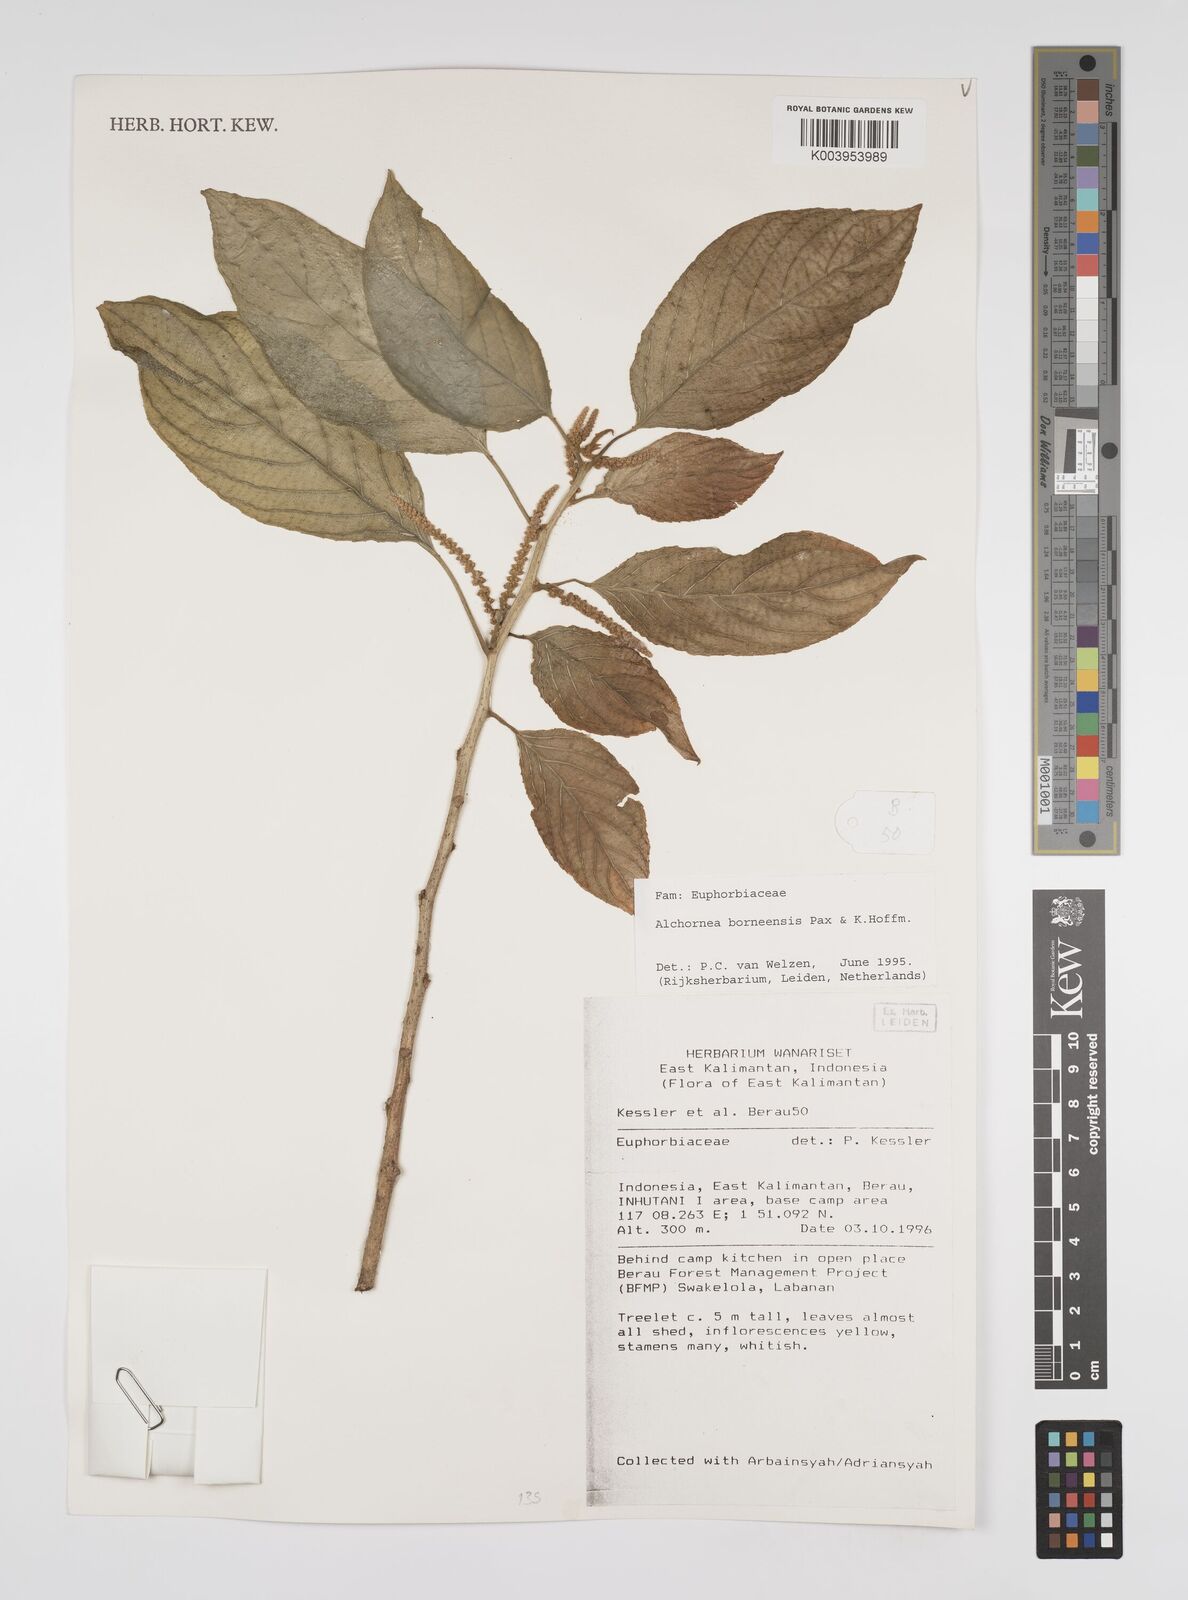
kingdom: Plantae
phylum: Tracheophyta
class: Magnoliopsida
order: Malpighiales
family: Euphorbiaceae
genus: Alchornea
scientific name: Alchornea parviflora
